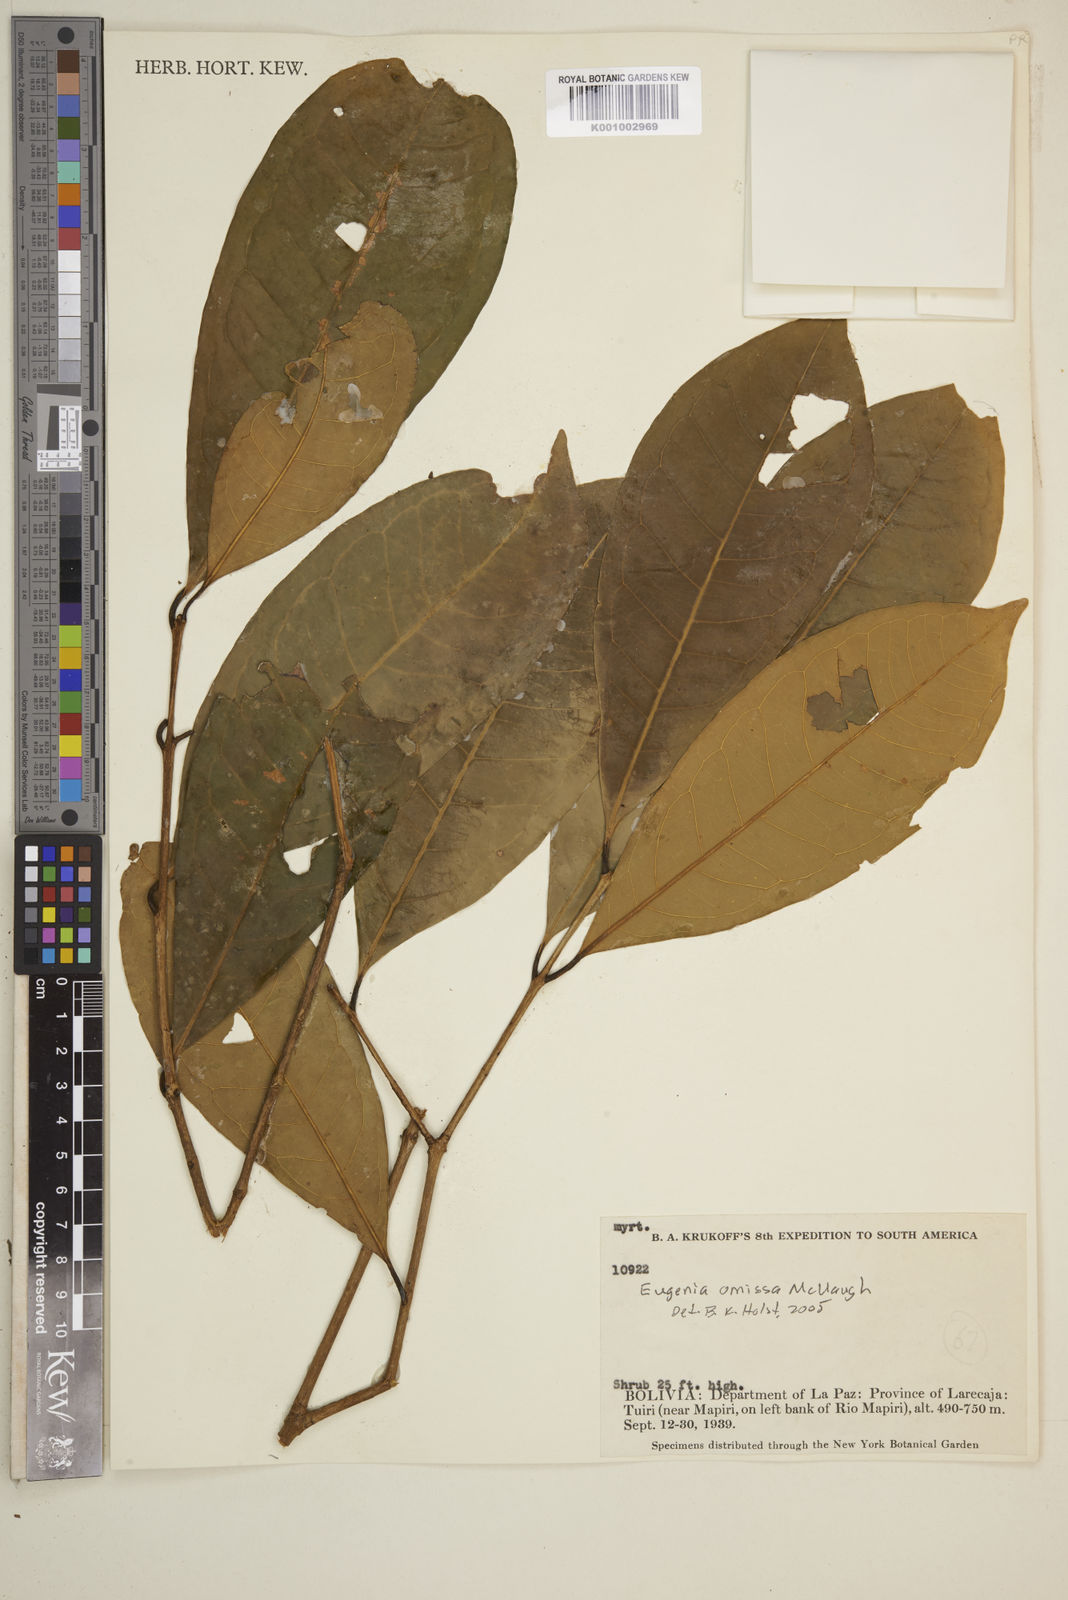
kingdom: Plantae
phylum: Tracheophyta
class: Magnoliopsida
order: Myrtales
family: Myrtaceae
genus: Eugenia
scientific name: Eugenia omissa
